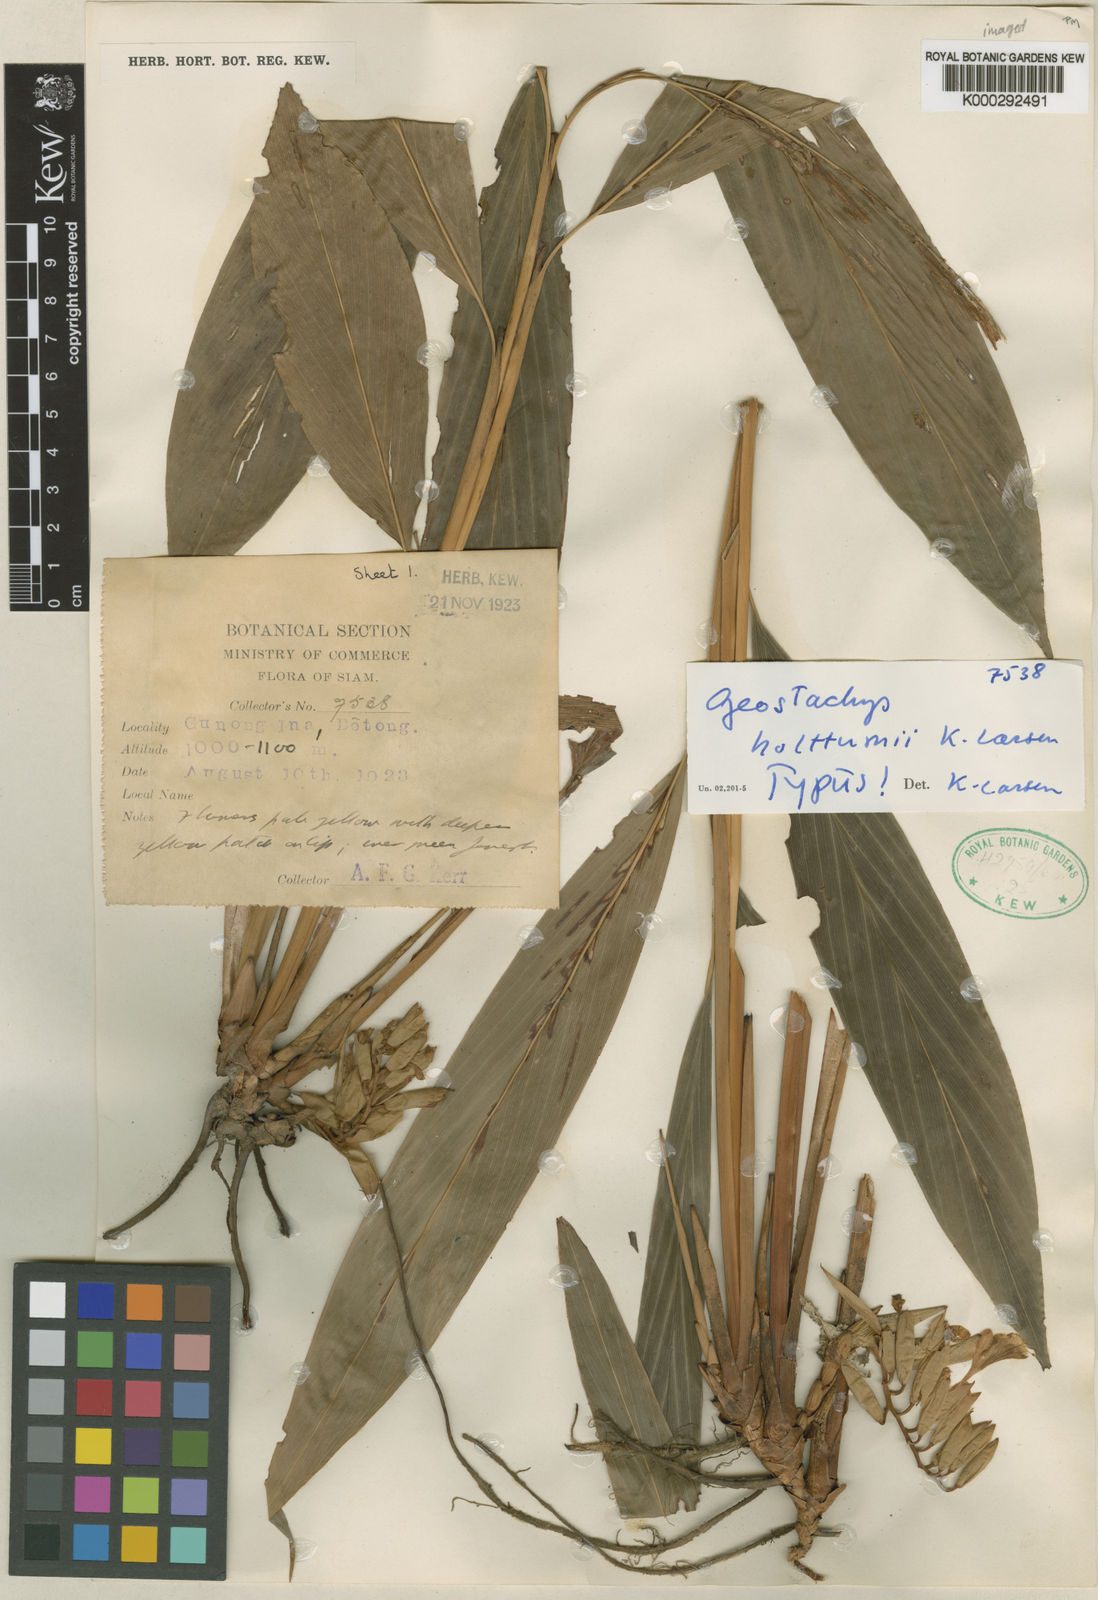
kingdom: Plantae
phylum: Tracheophyta
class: Liliopsida
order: Zingiberales
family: Zingiberaceae
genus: Geostachys
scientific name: Geostachys holttumii
